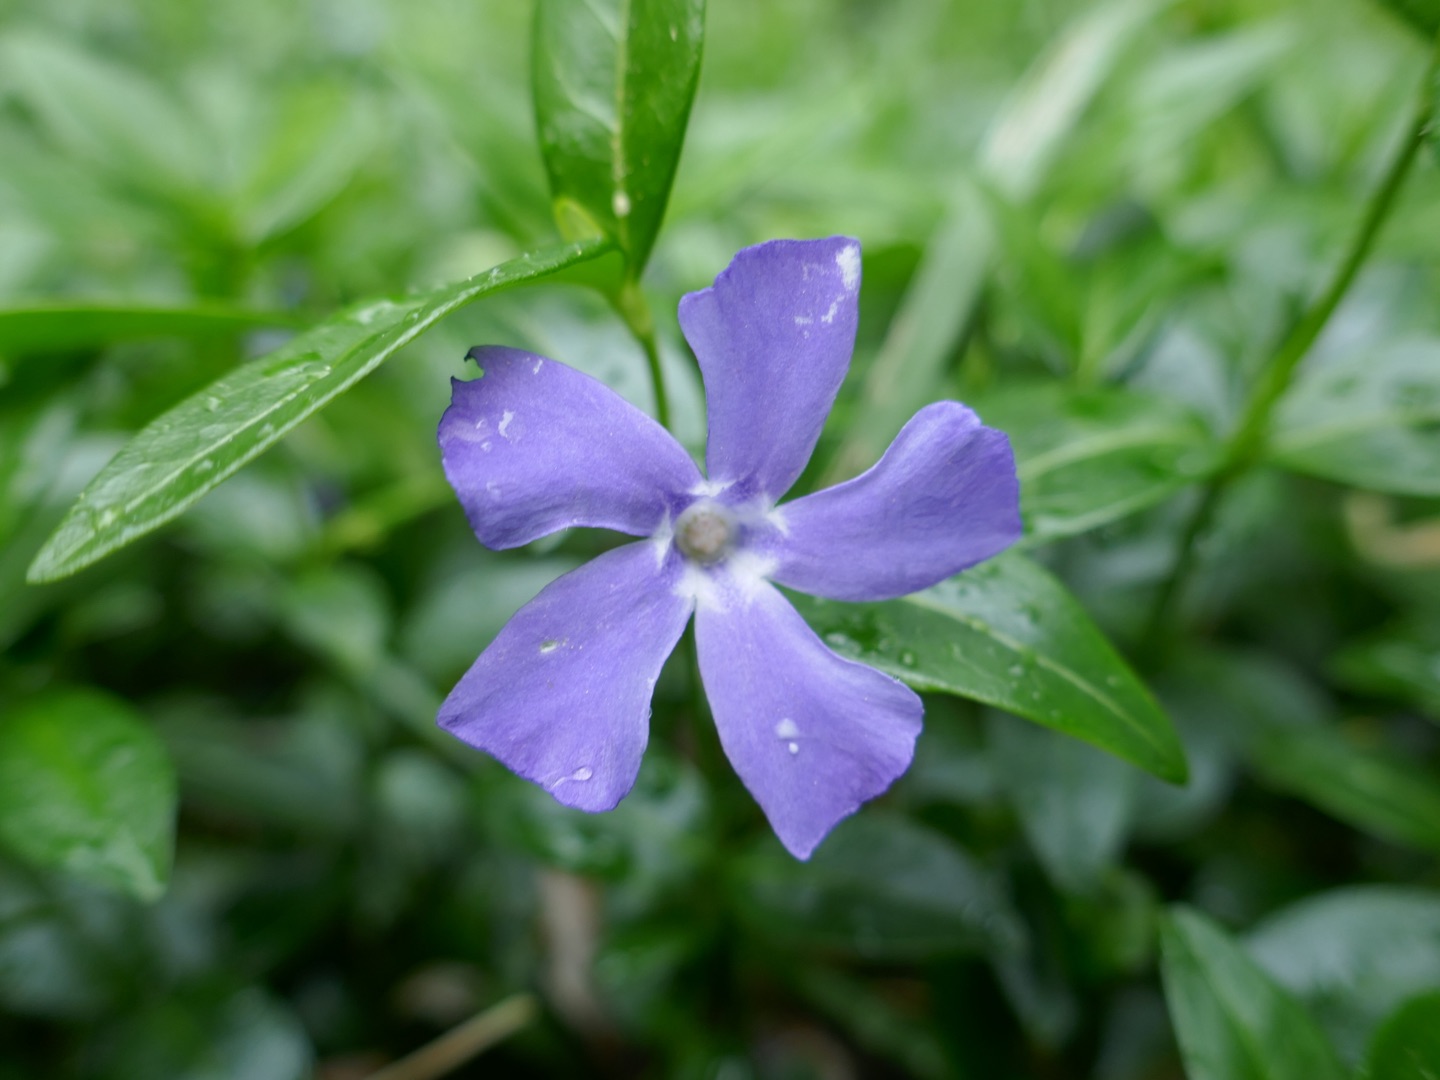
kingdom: Plantae
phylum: Tracheophyta
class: Magnoliopsida
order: Gentianales
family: Apocynaceae
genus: Vinca
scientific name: Vinca minor
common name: Liden singrøn
